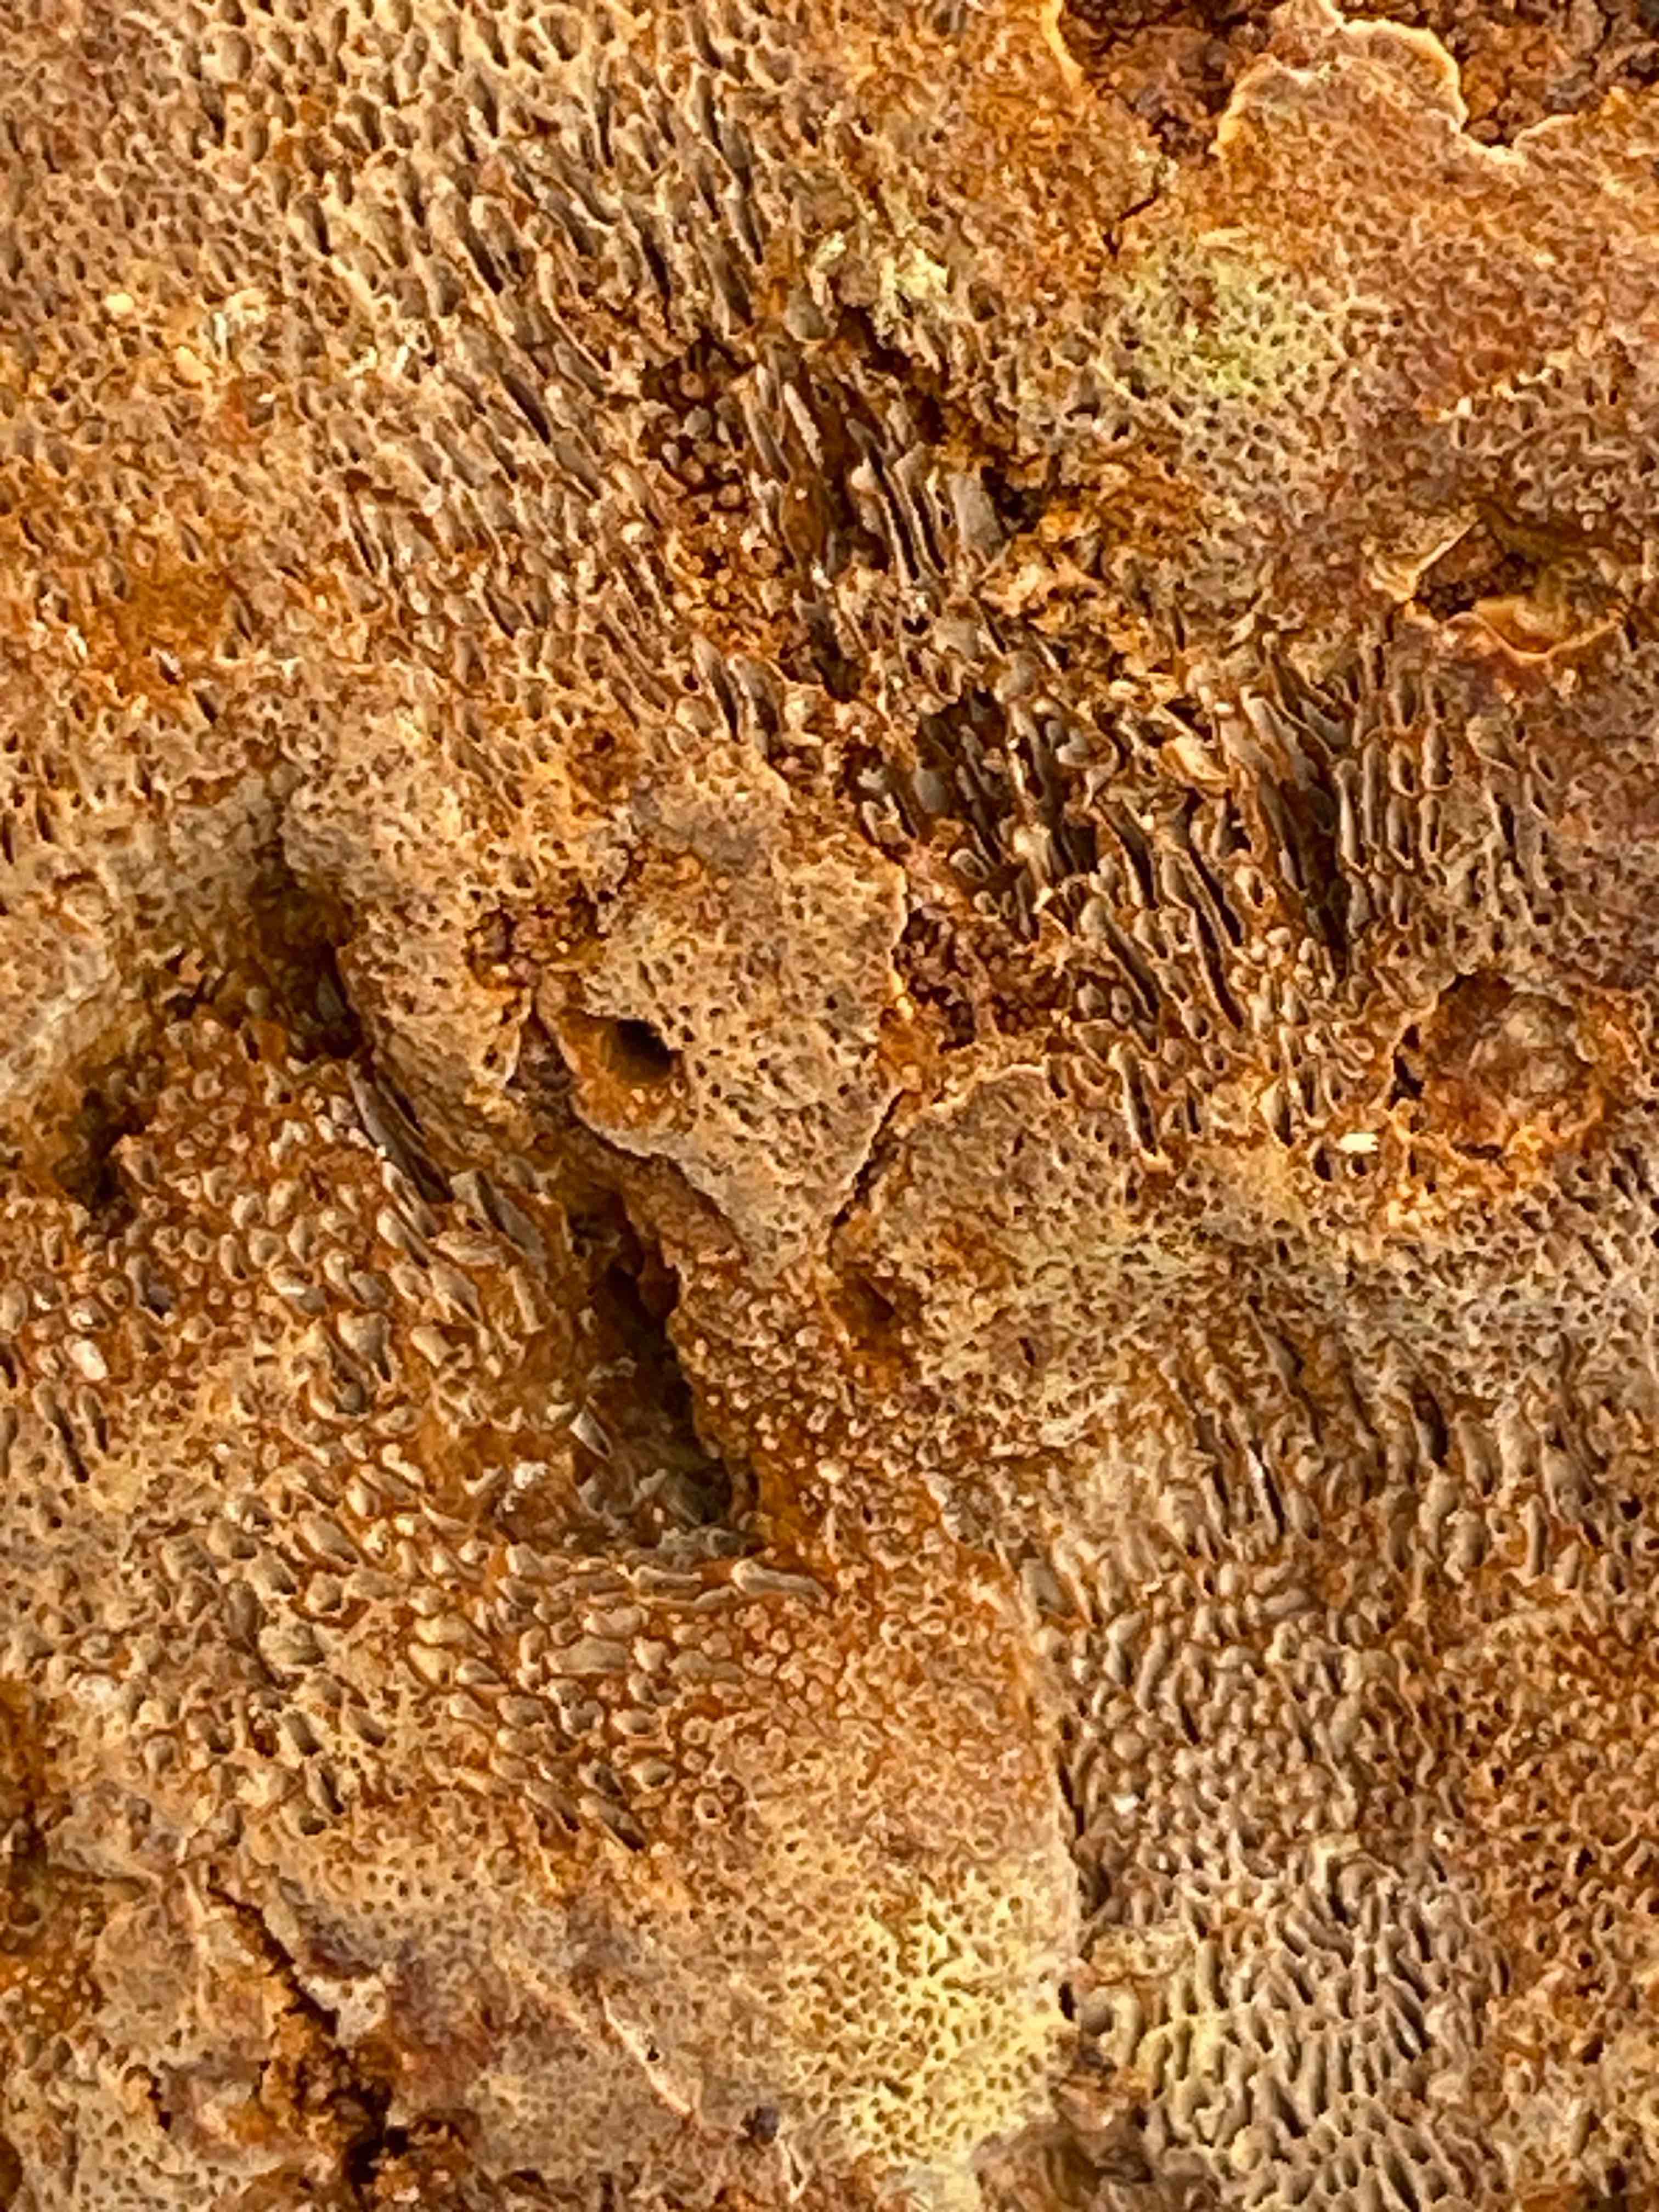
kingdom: Fungi
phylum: Basidiomycota
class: Agaricomycetes
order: Hymenochaetales
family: Hymenochaetaceae
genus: Porodaedalea
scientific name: Porodaedalea pini
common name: fyrre-ildporesvamp
